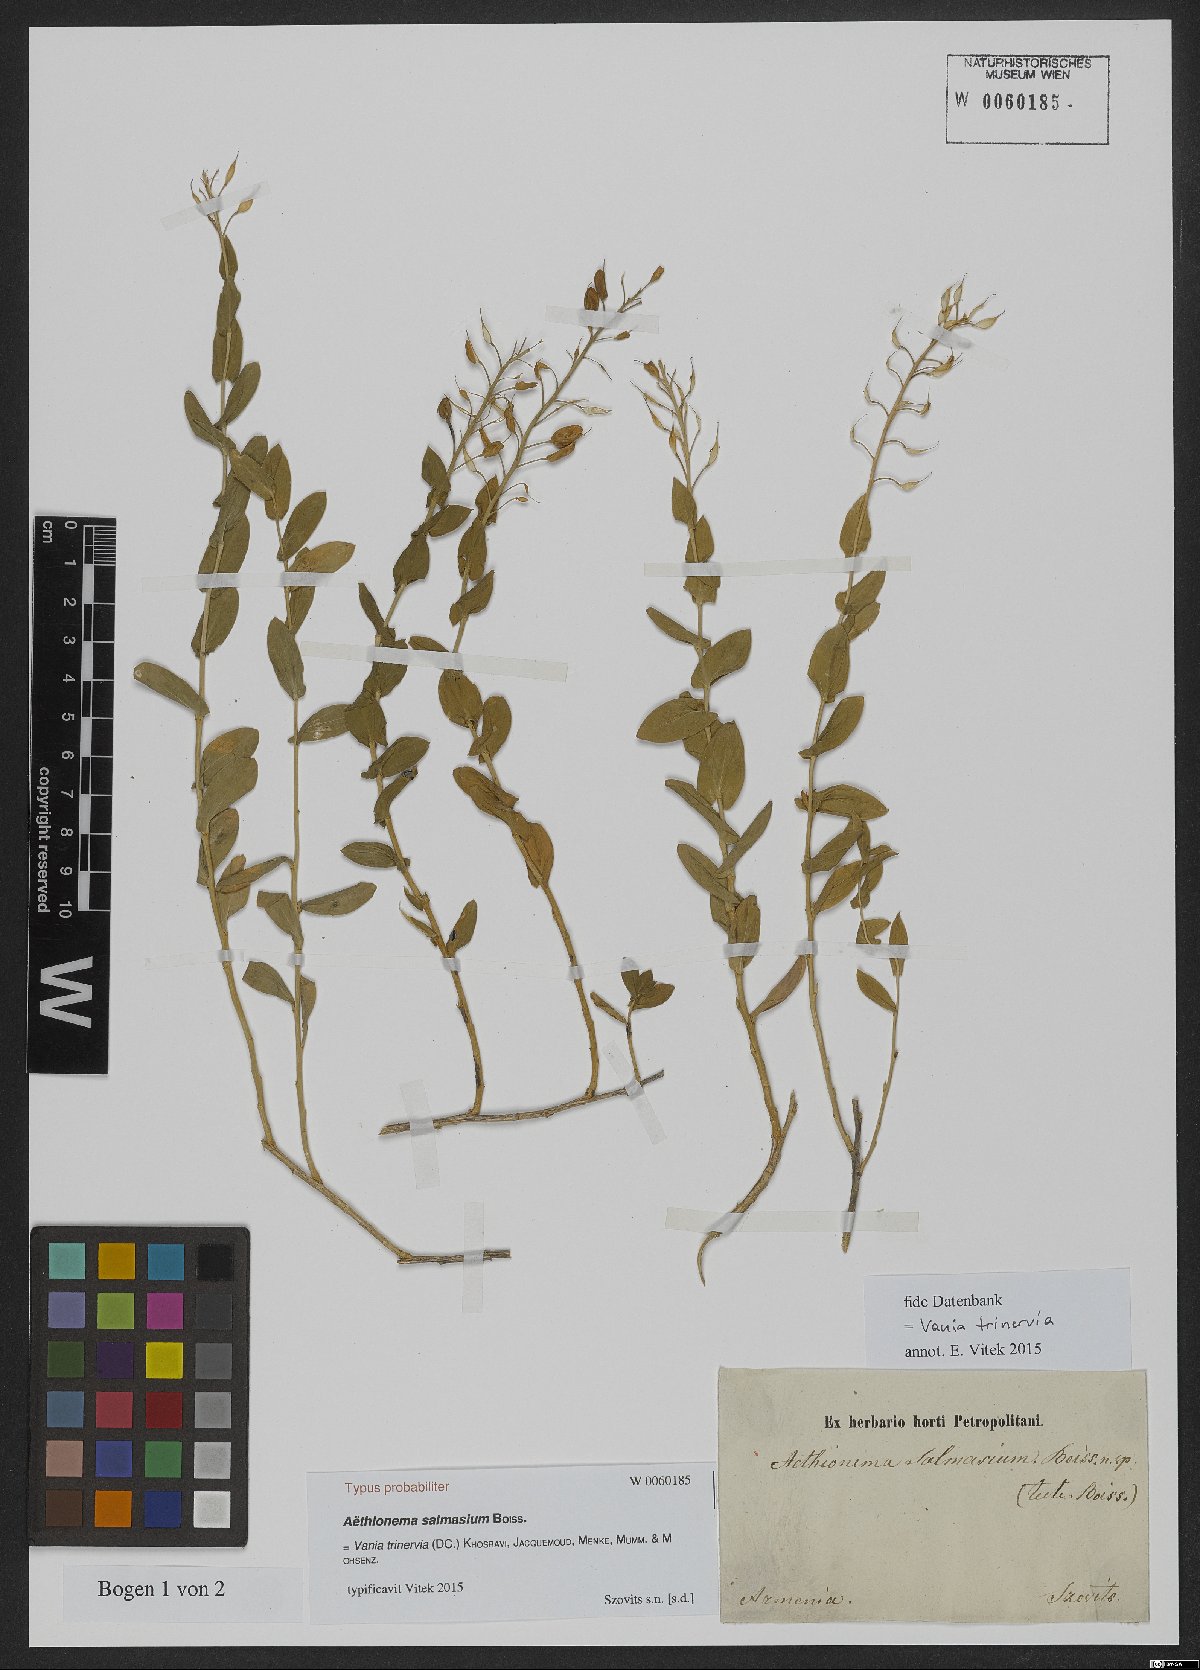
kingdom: Plantae
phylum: Tracheophyta
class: Magnoliopsida
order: Brassicales
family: Brassicaceae
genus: Noccaea
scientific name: Noccaea trinervia
